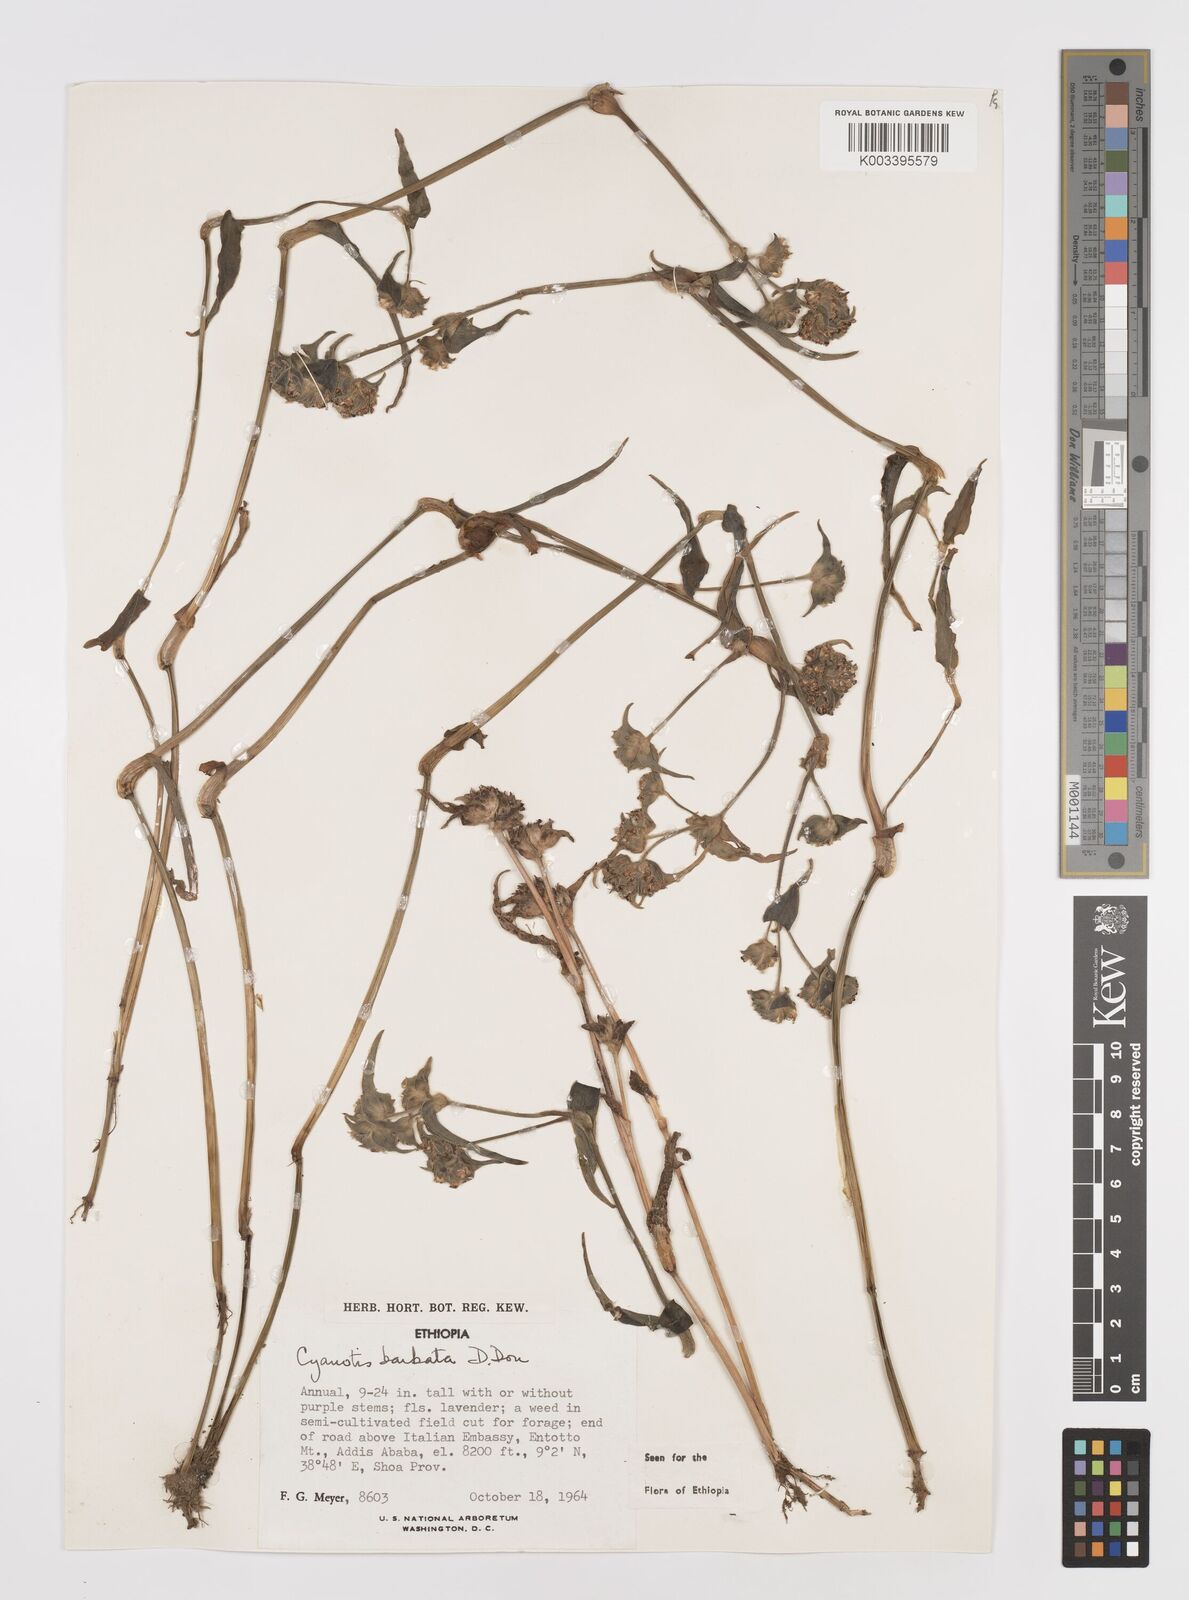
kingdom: Plantae
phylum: Tracheophyta
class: Liliopsida
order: Commelinales
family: Commelinaceae
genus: Cyanotis
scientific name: Cyanotis vaga
